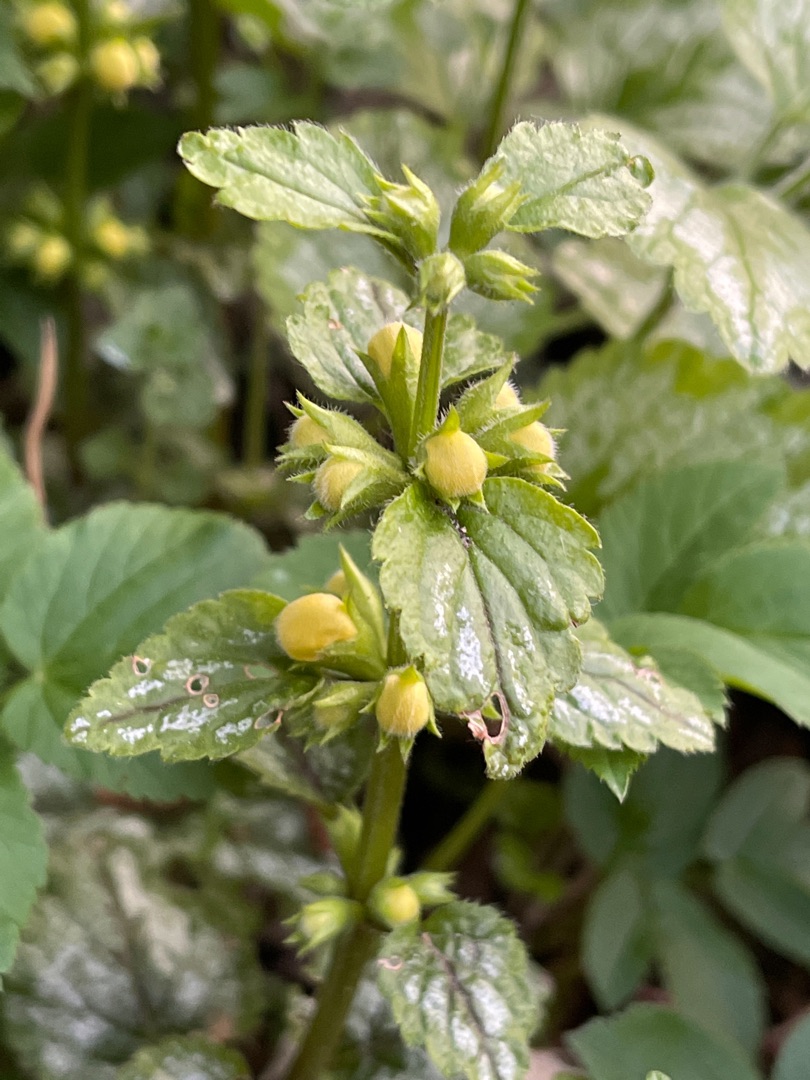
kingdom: Plantae
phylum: Tracheophyta
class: Magnoliopsida
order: Lamiales
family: Lamiaceae
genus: Lamium
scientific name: Lamium galeobdolon
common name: Have-guldnælde
